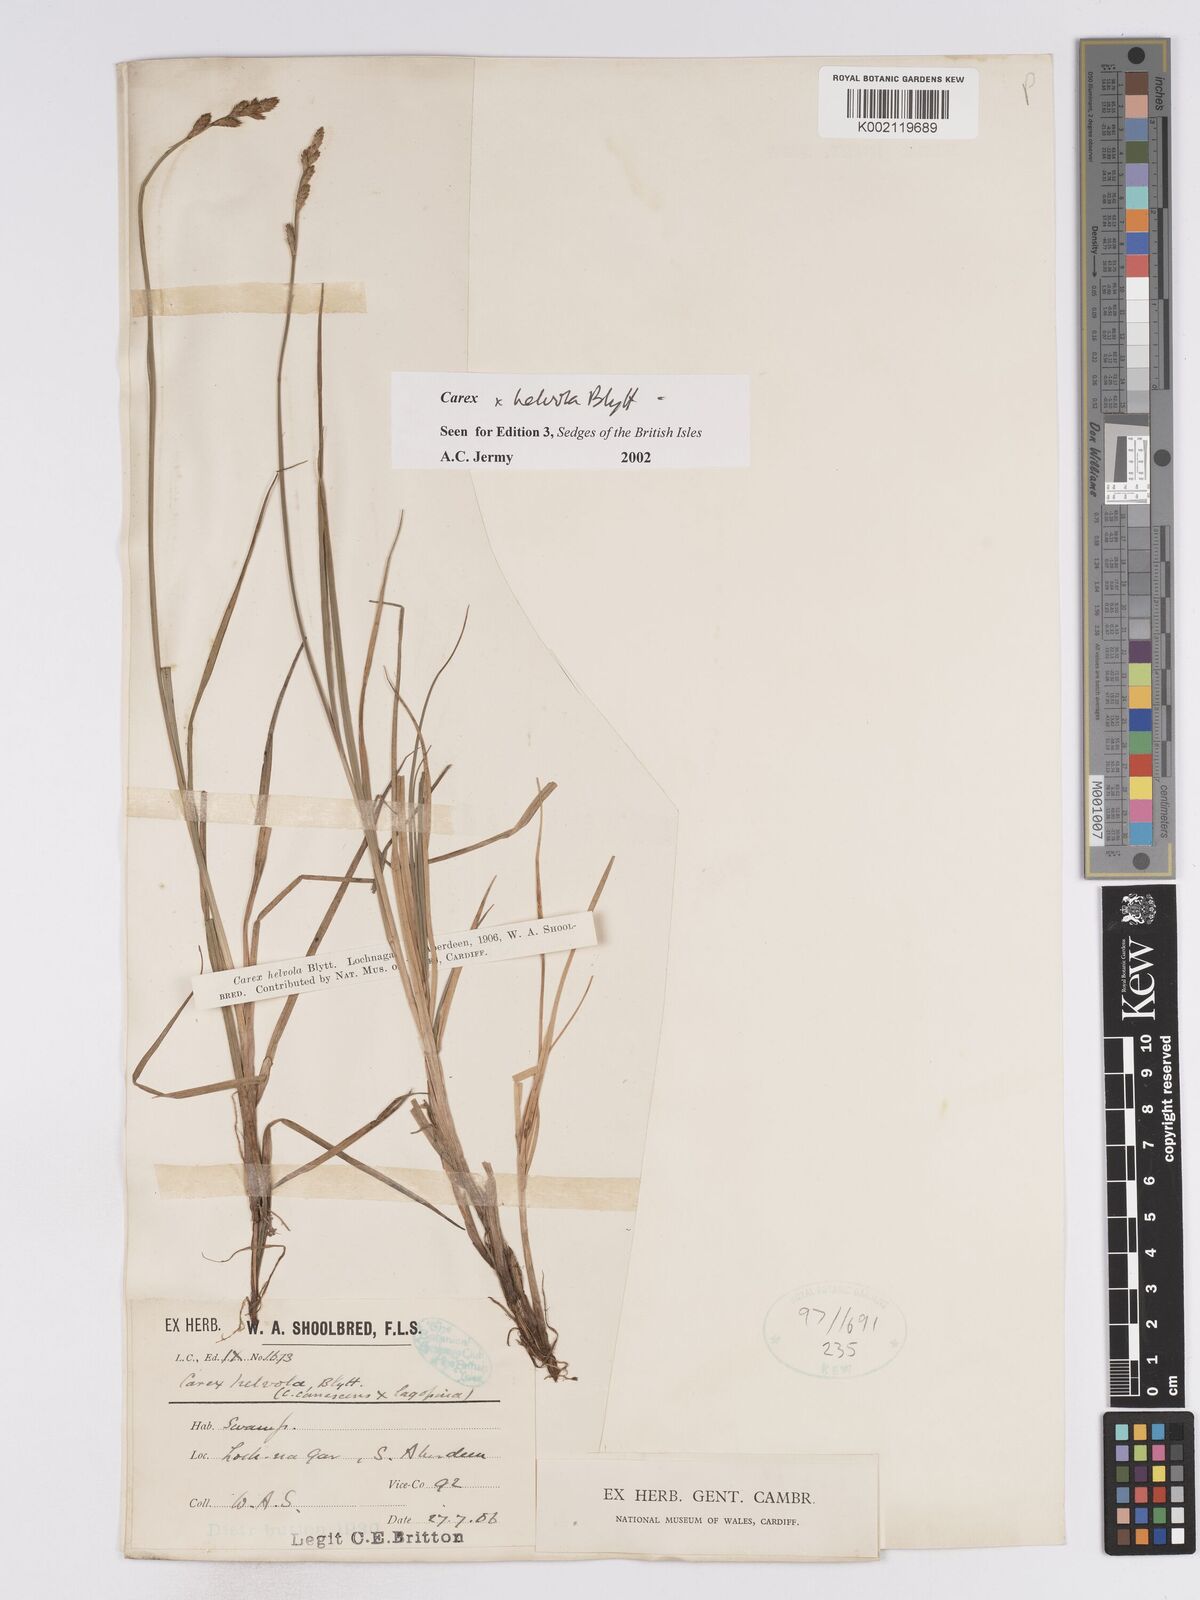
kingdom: Plantae
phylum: Tracheophyta
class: Liliopsida
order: Poales
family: Cyperaceae
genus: Carex
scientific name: Carex
